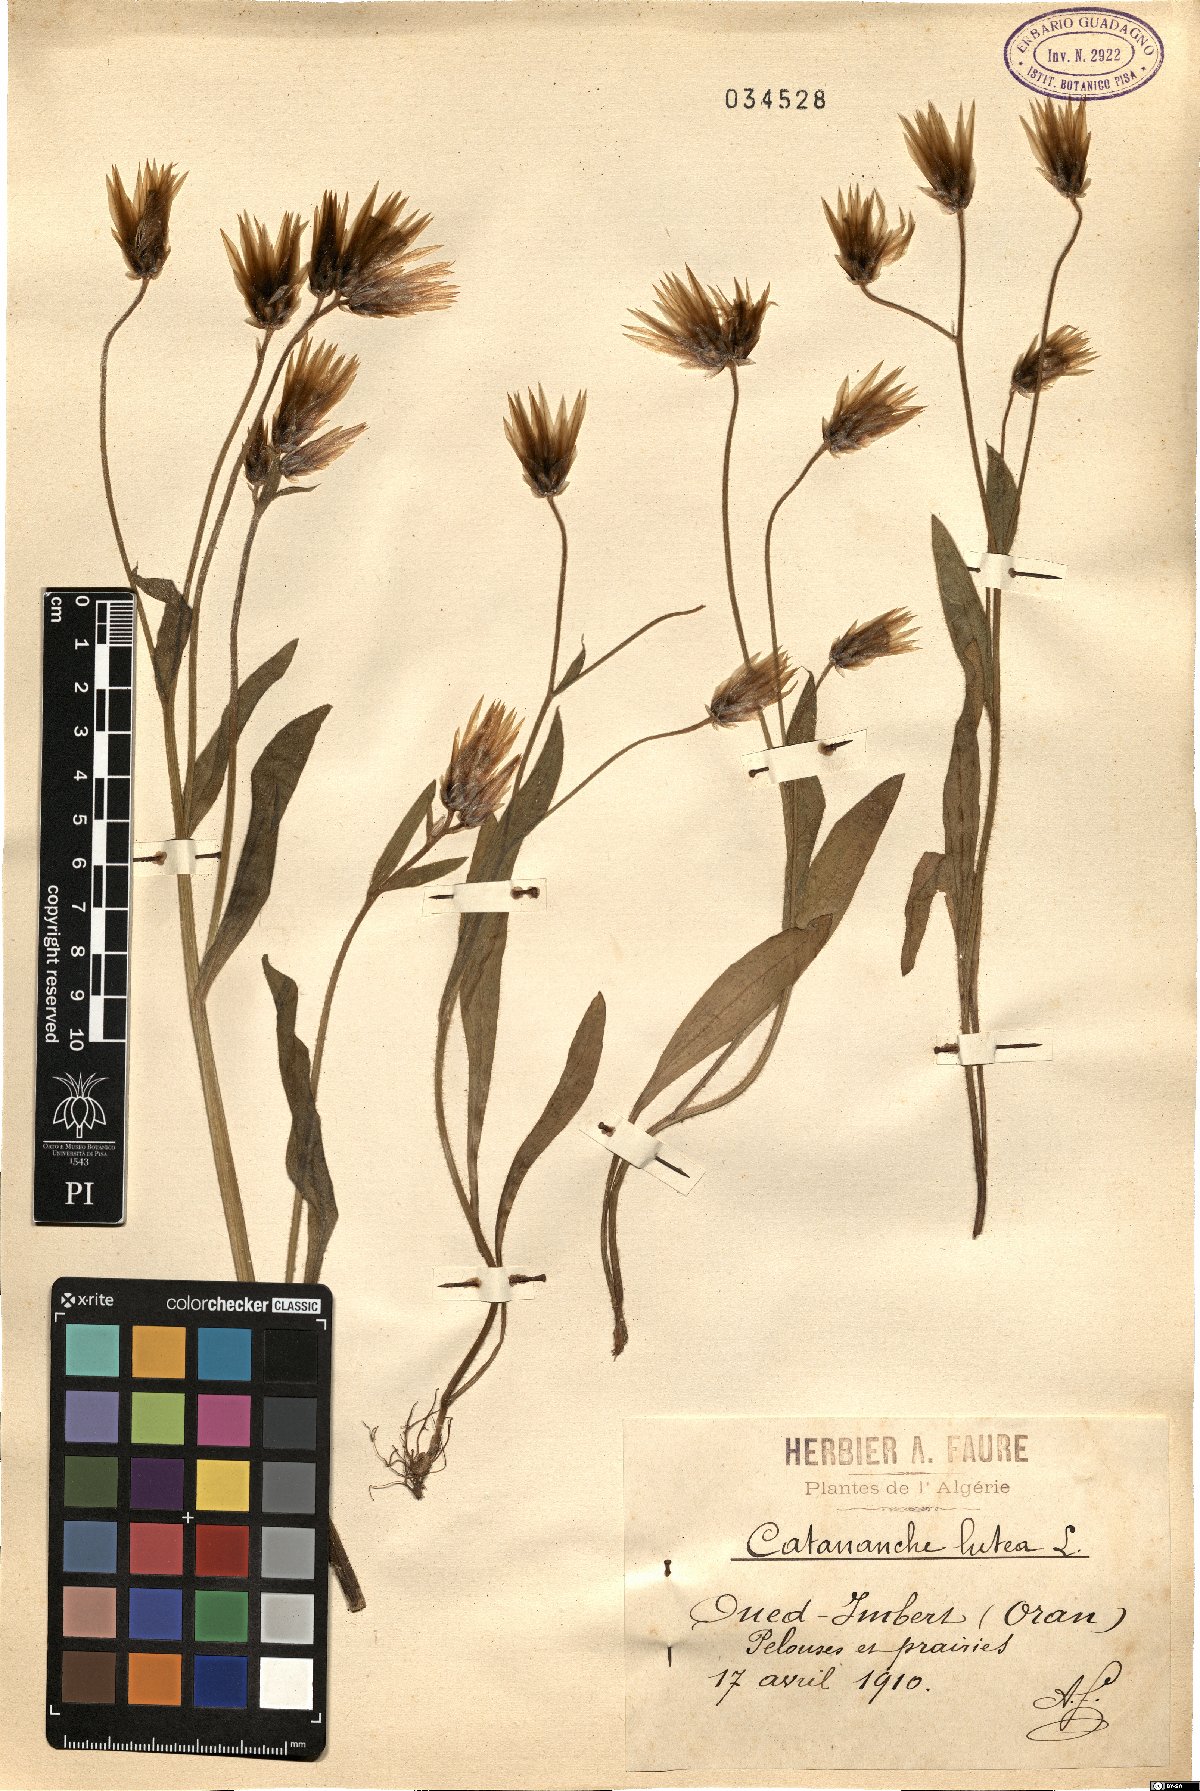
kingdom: Plantae
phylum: Tracheophyta
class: Magnoliopsida
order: Asterales
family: Asteraceae
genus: Catananche
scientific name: Catananche lutea
